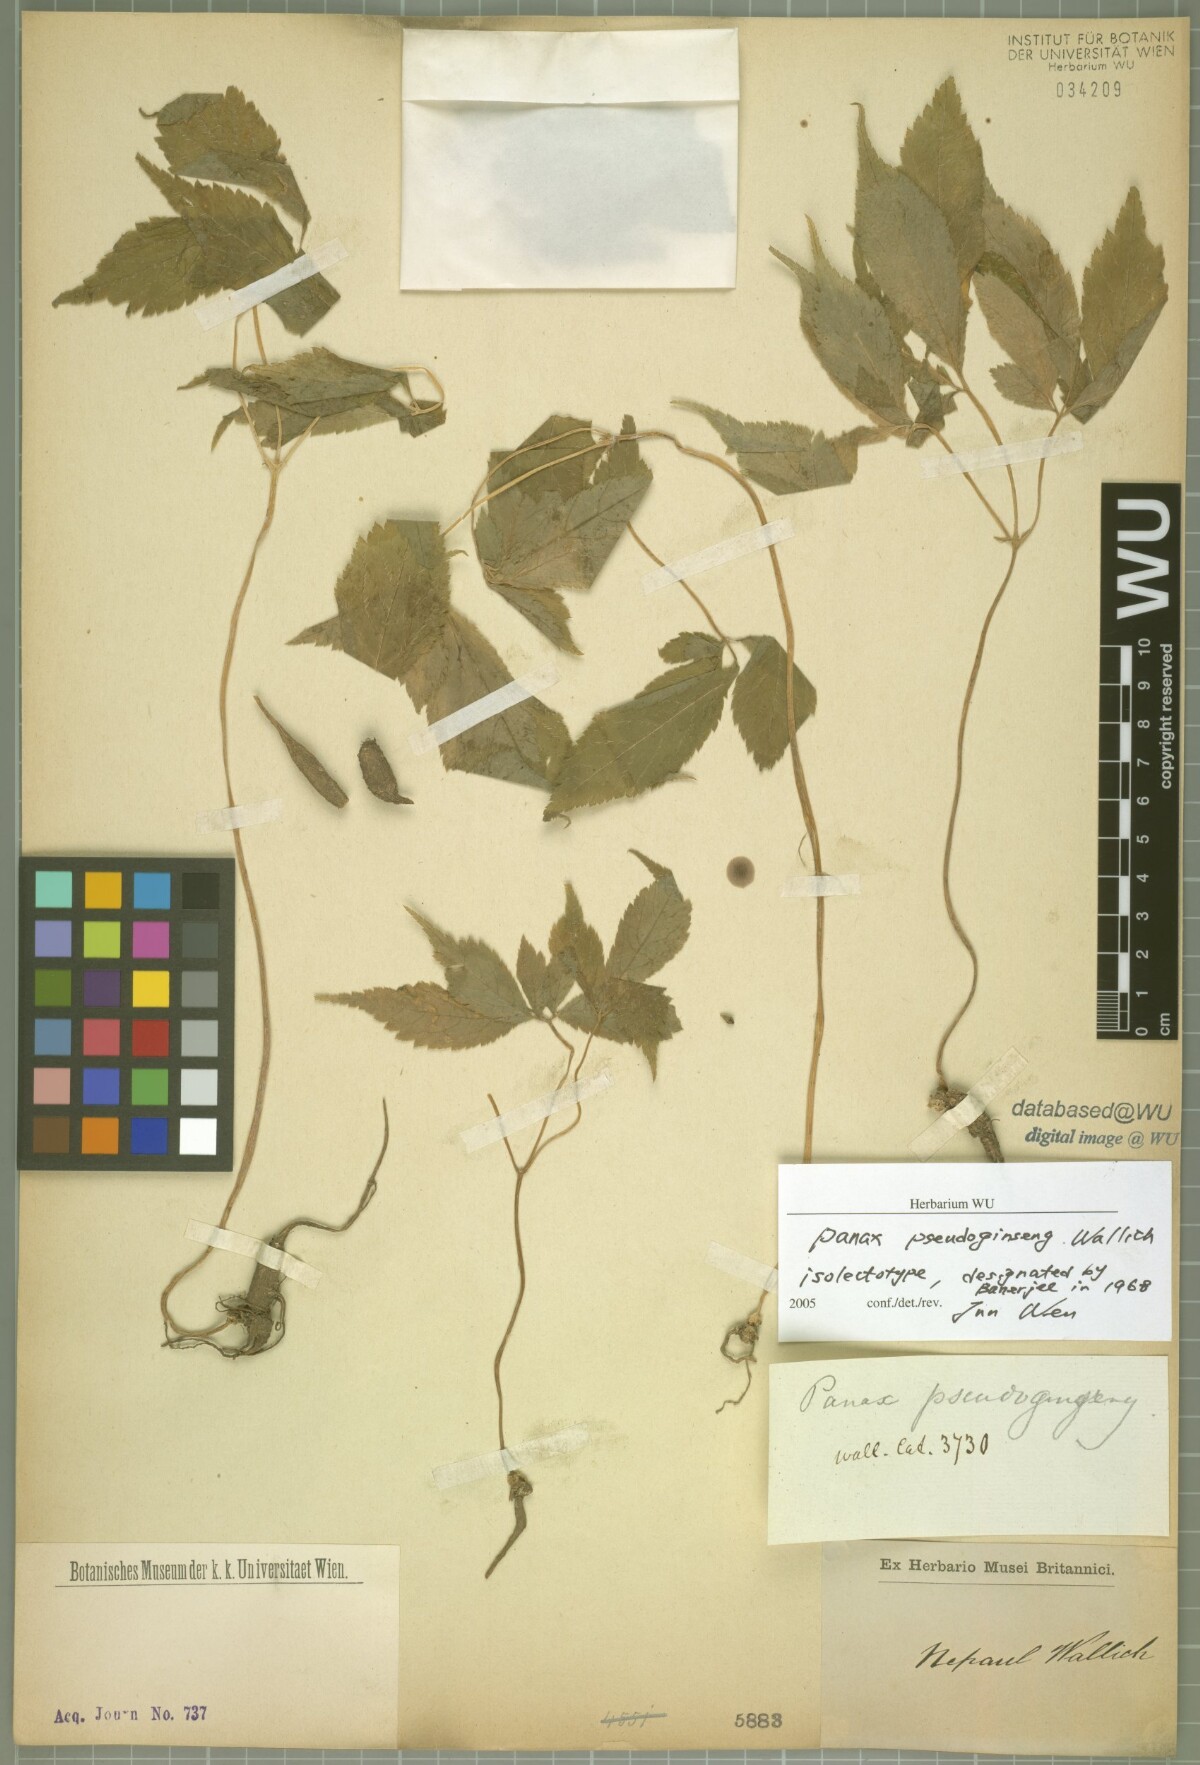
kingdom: Plantae
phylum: Tracheophyta
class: Magnoliopsida
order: Apiales
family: Araliaceae
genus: Panax
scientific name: Panax pseudoginseng
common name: Pseudoginseng
